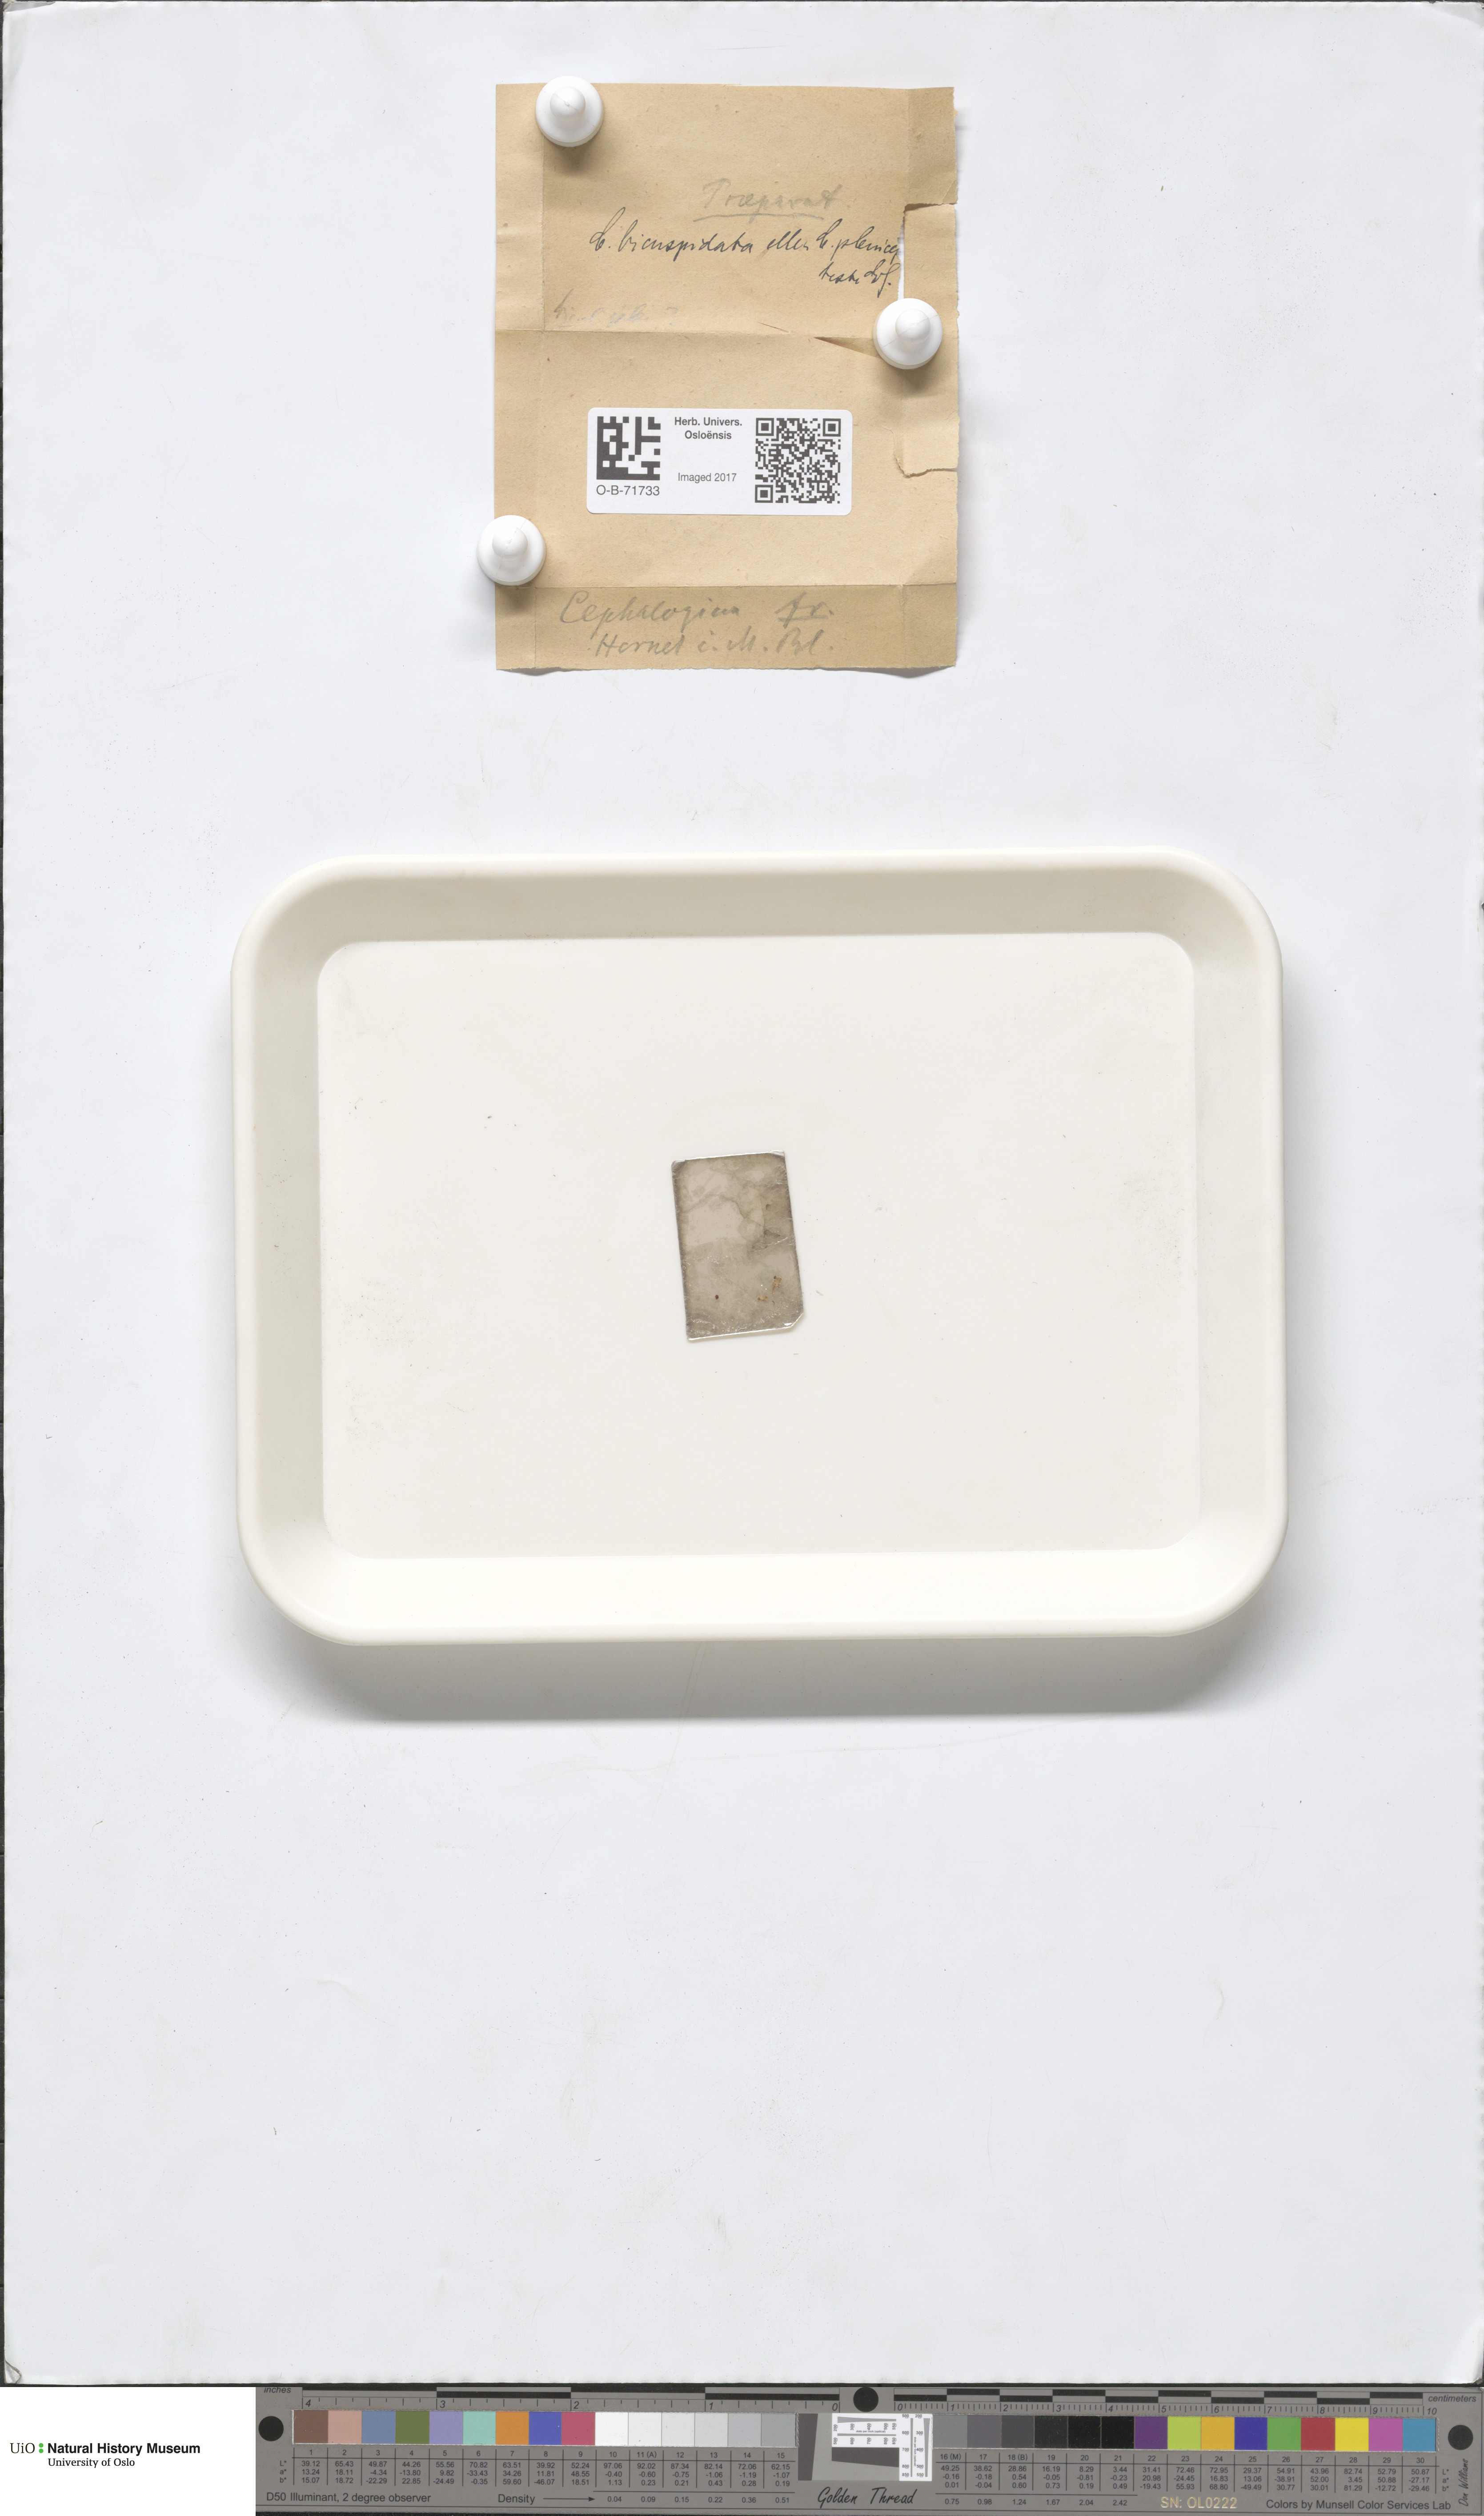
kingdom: Plantae
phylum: Marchantiophyta
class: Jungermanniopsida
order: Jungermanniales
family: Cephaloziaceae
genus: Fuscocephaloziopsis
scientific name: Fuscocephaloziopsis pleniceps
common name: Blunt pincerwort
